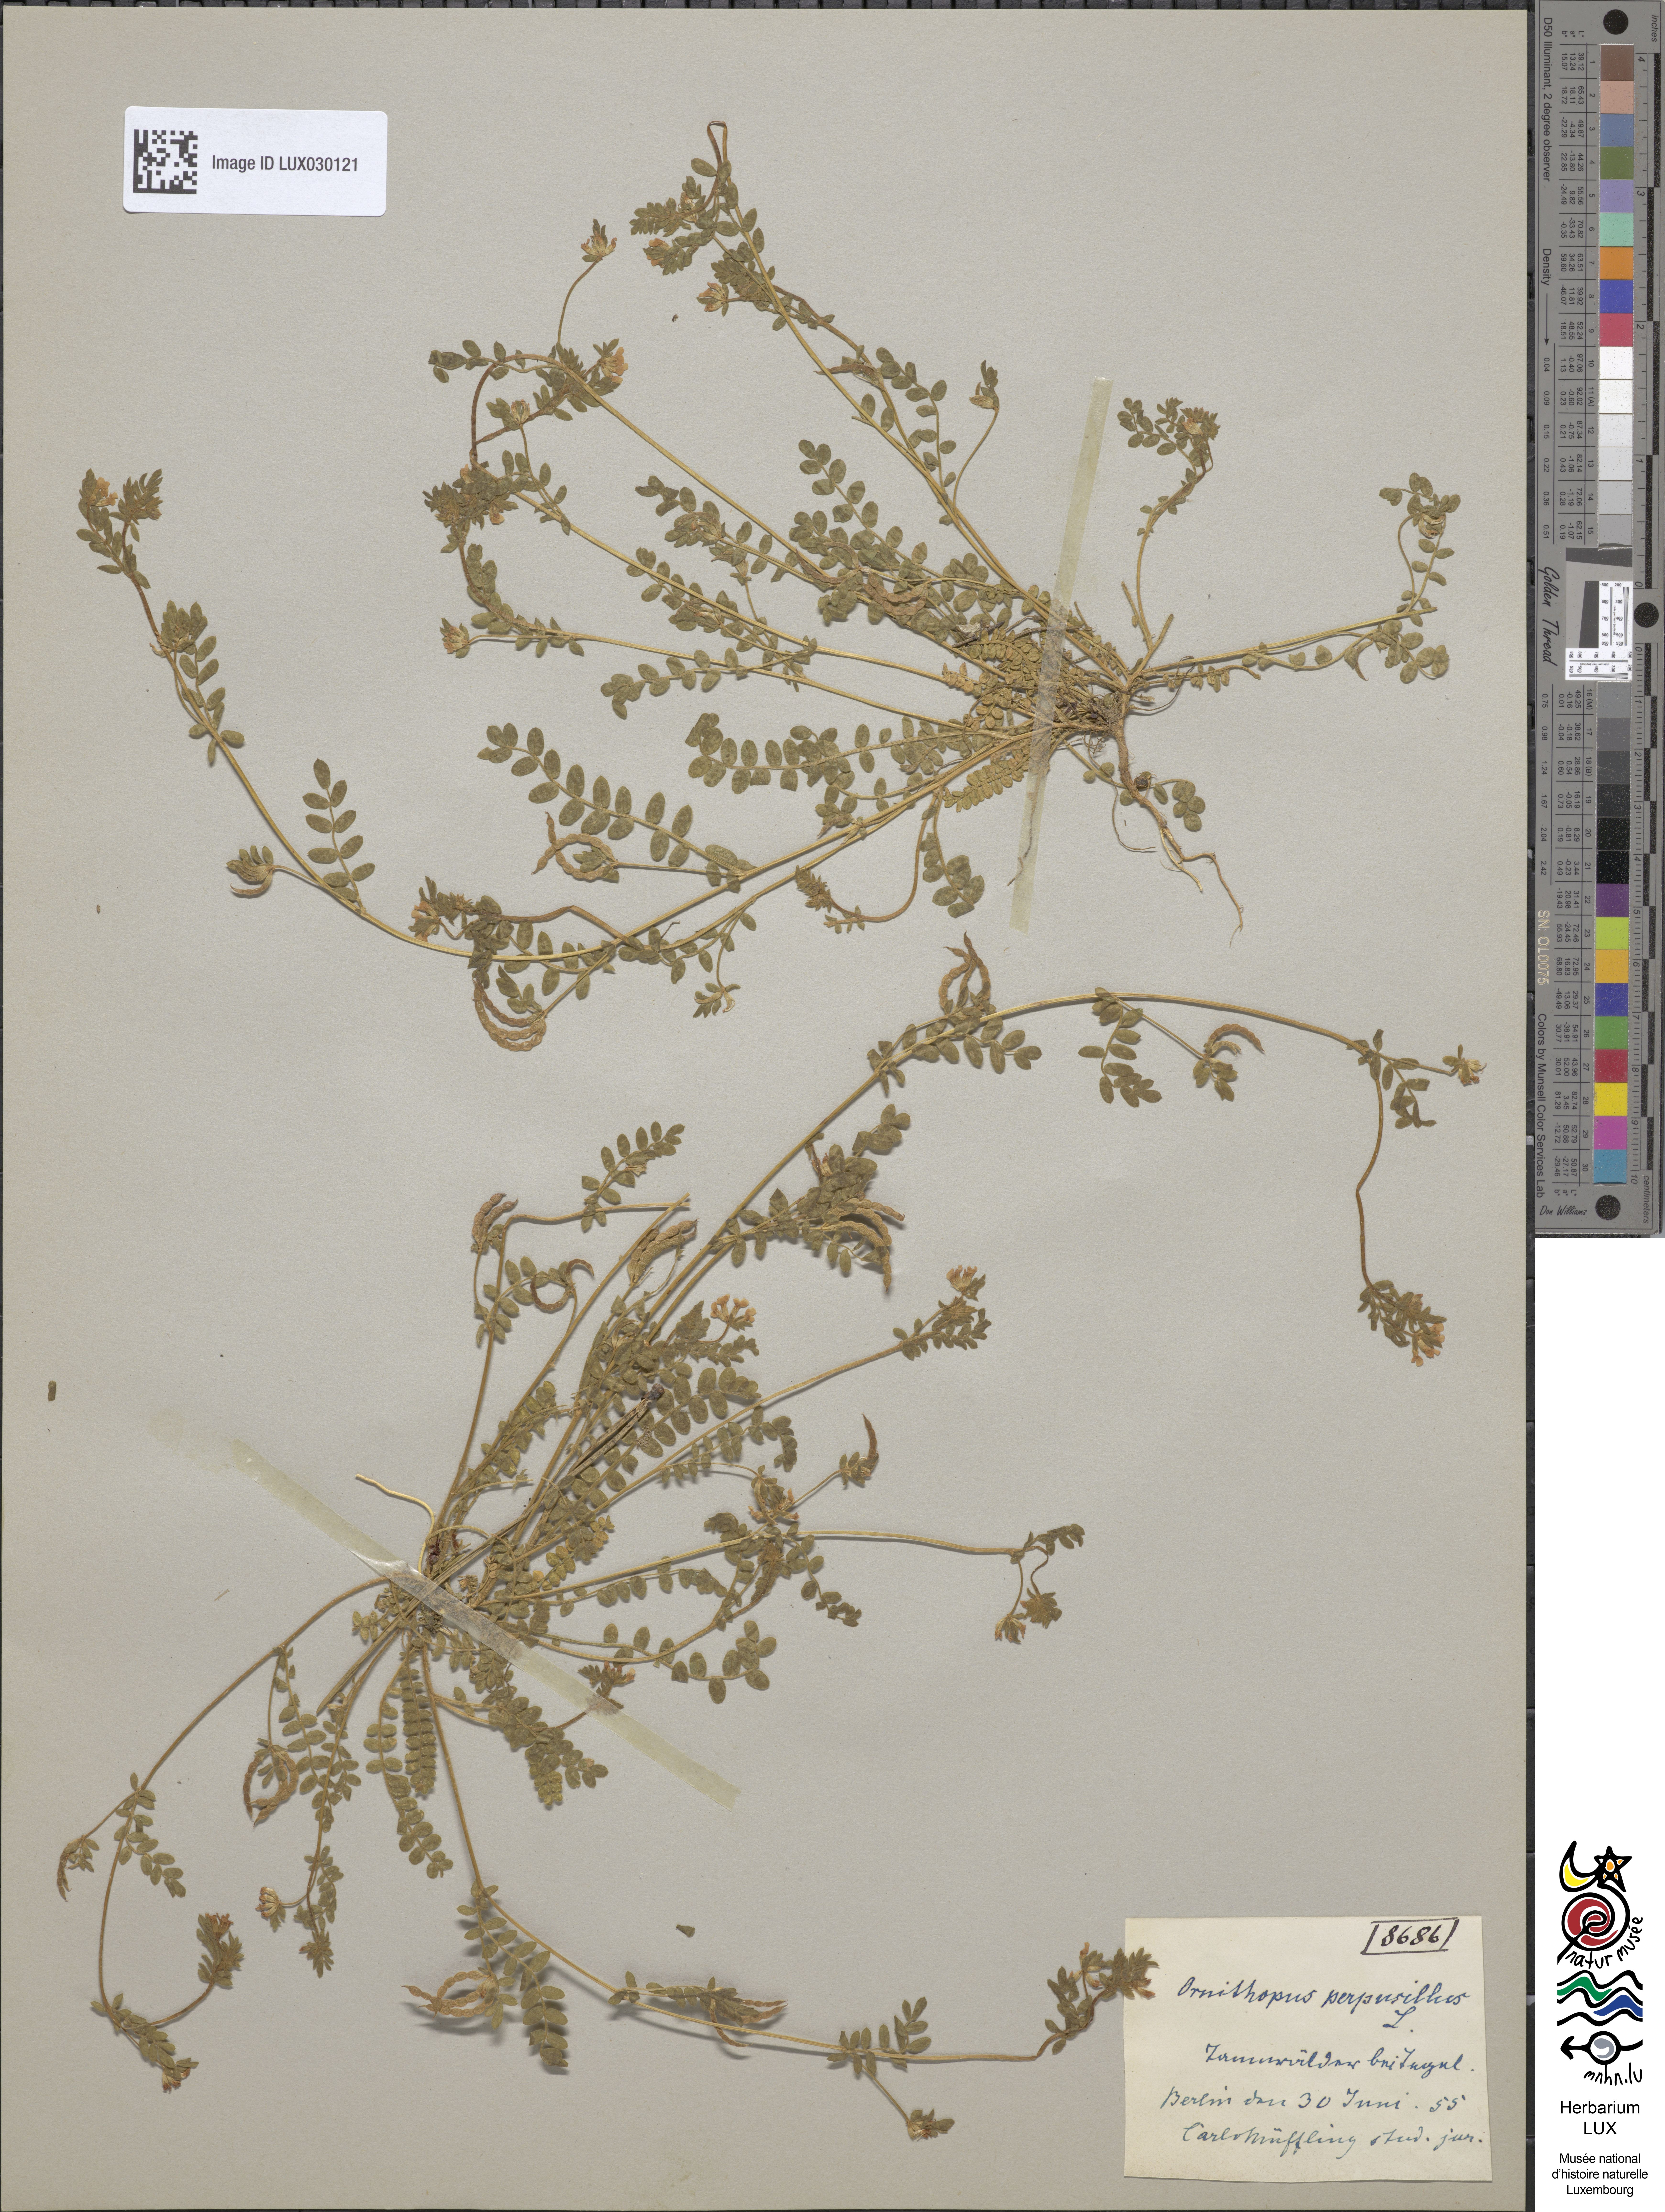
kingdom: Plantae
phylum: Tracheophyta
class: Magnoliopsida
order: Fabales
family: Fabaceae
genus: Ornithopus
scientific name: Ornithopus perpusillus
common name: Bird's-foot
